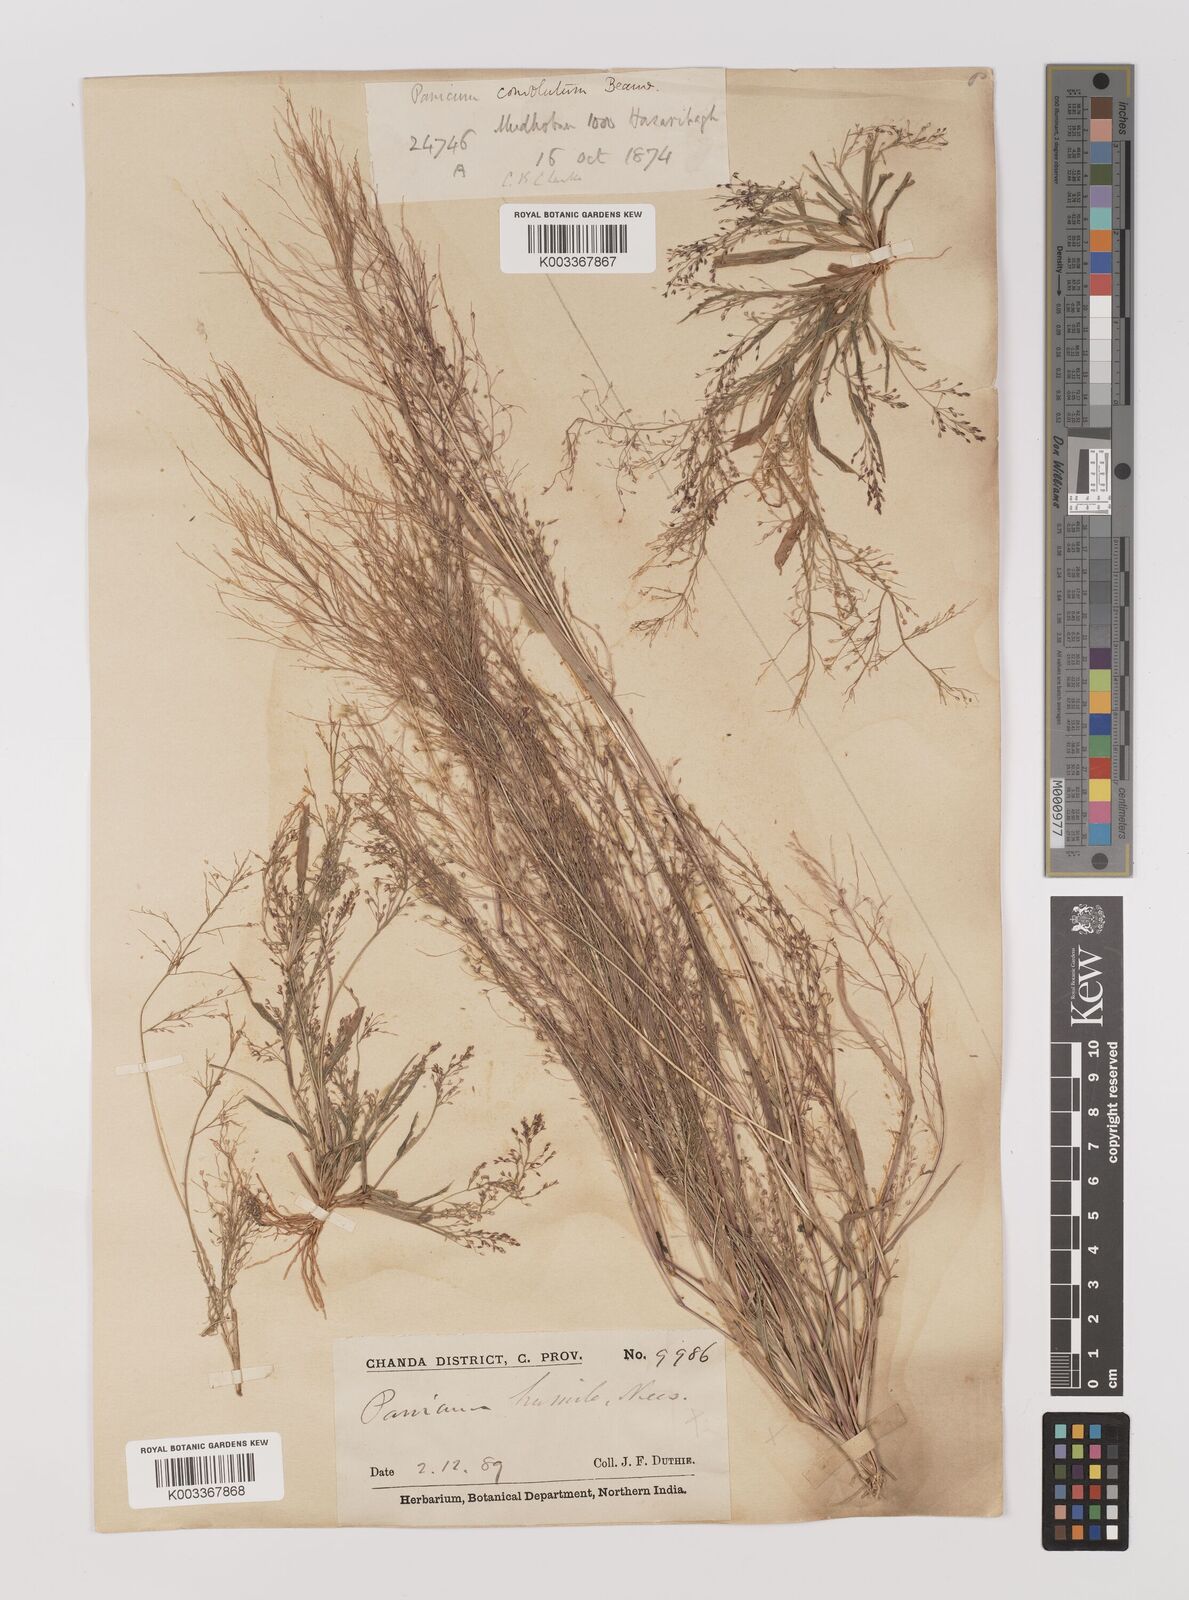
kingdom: Plantae
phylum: Tracheophyta
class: Liliopsida
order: Poales
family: Poaceae
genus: Panicum
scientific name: Panicum humile
